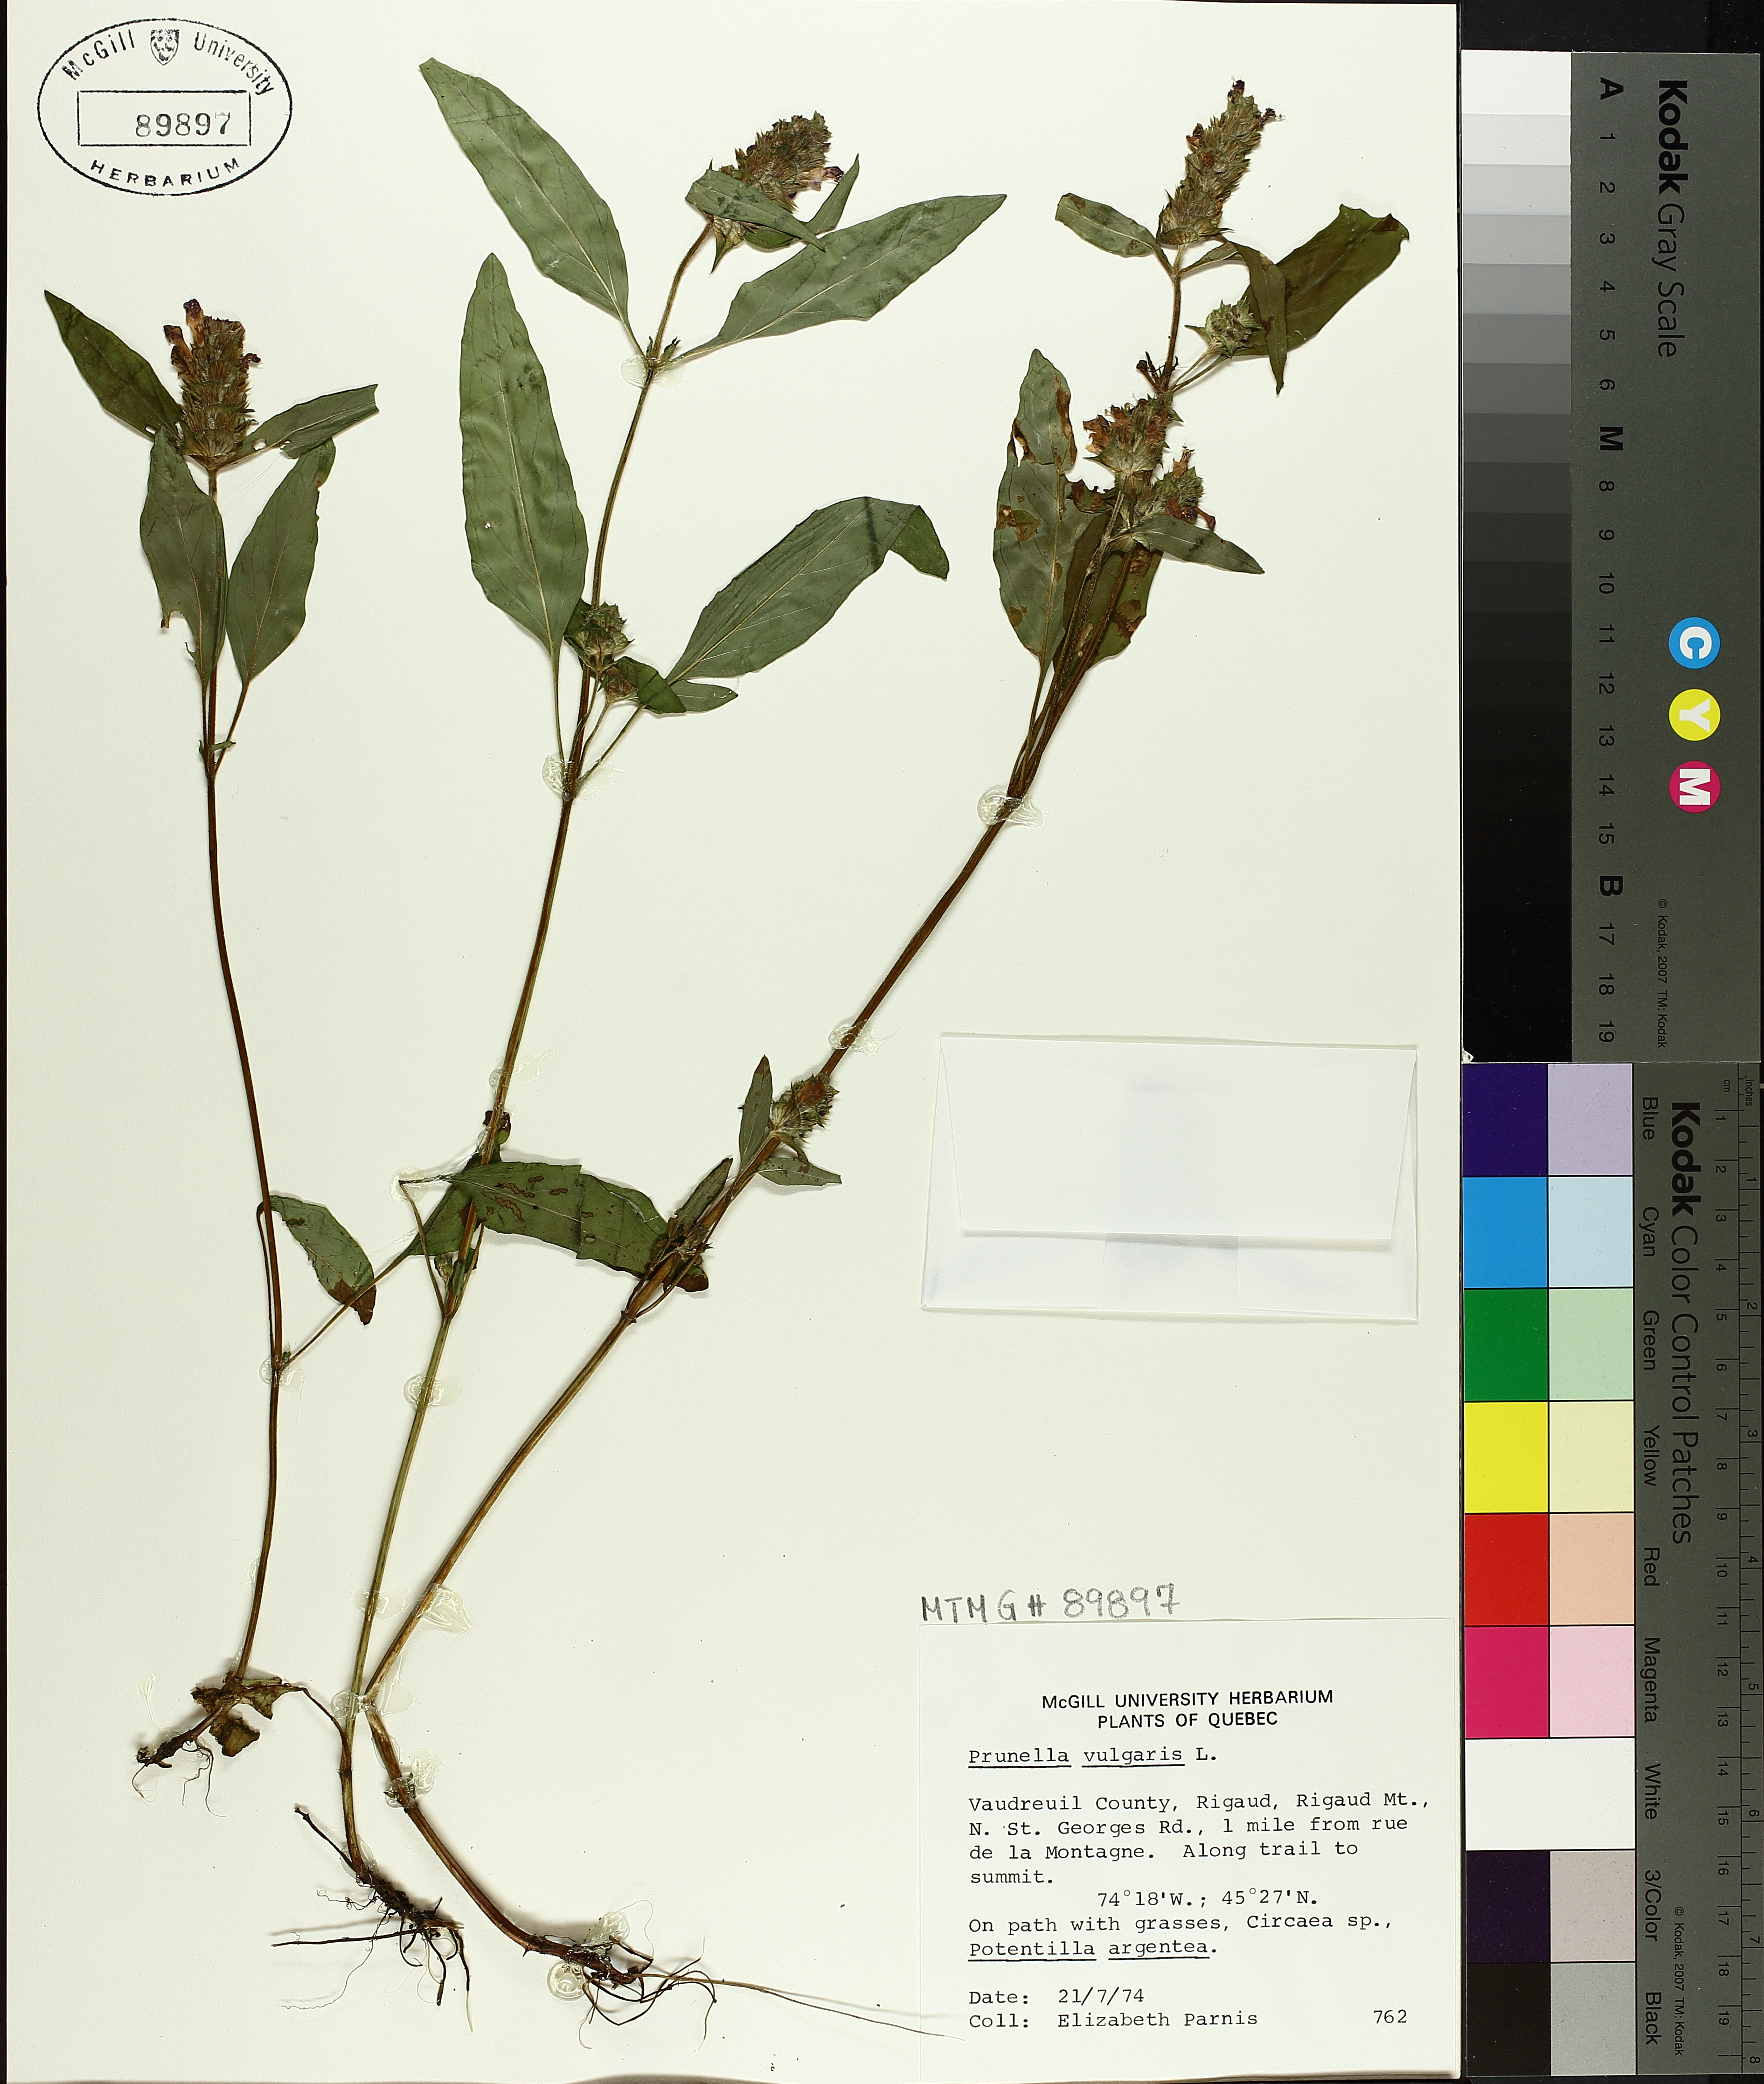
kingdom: Plantae
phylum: Tracheophyta
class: Magnoliopsida
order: Lamiales
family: Lamiaceae
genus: Prunella
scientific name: Prunella vulgaris
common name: Heal-all
